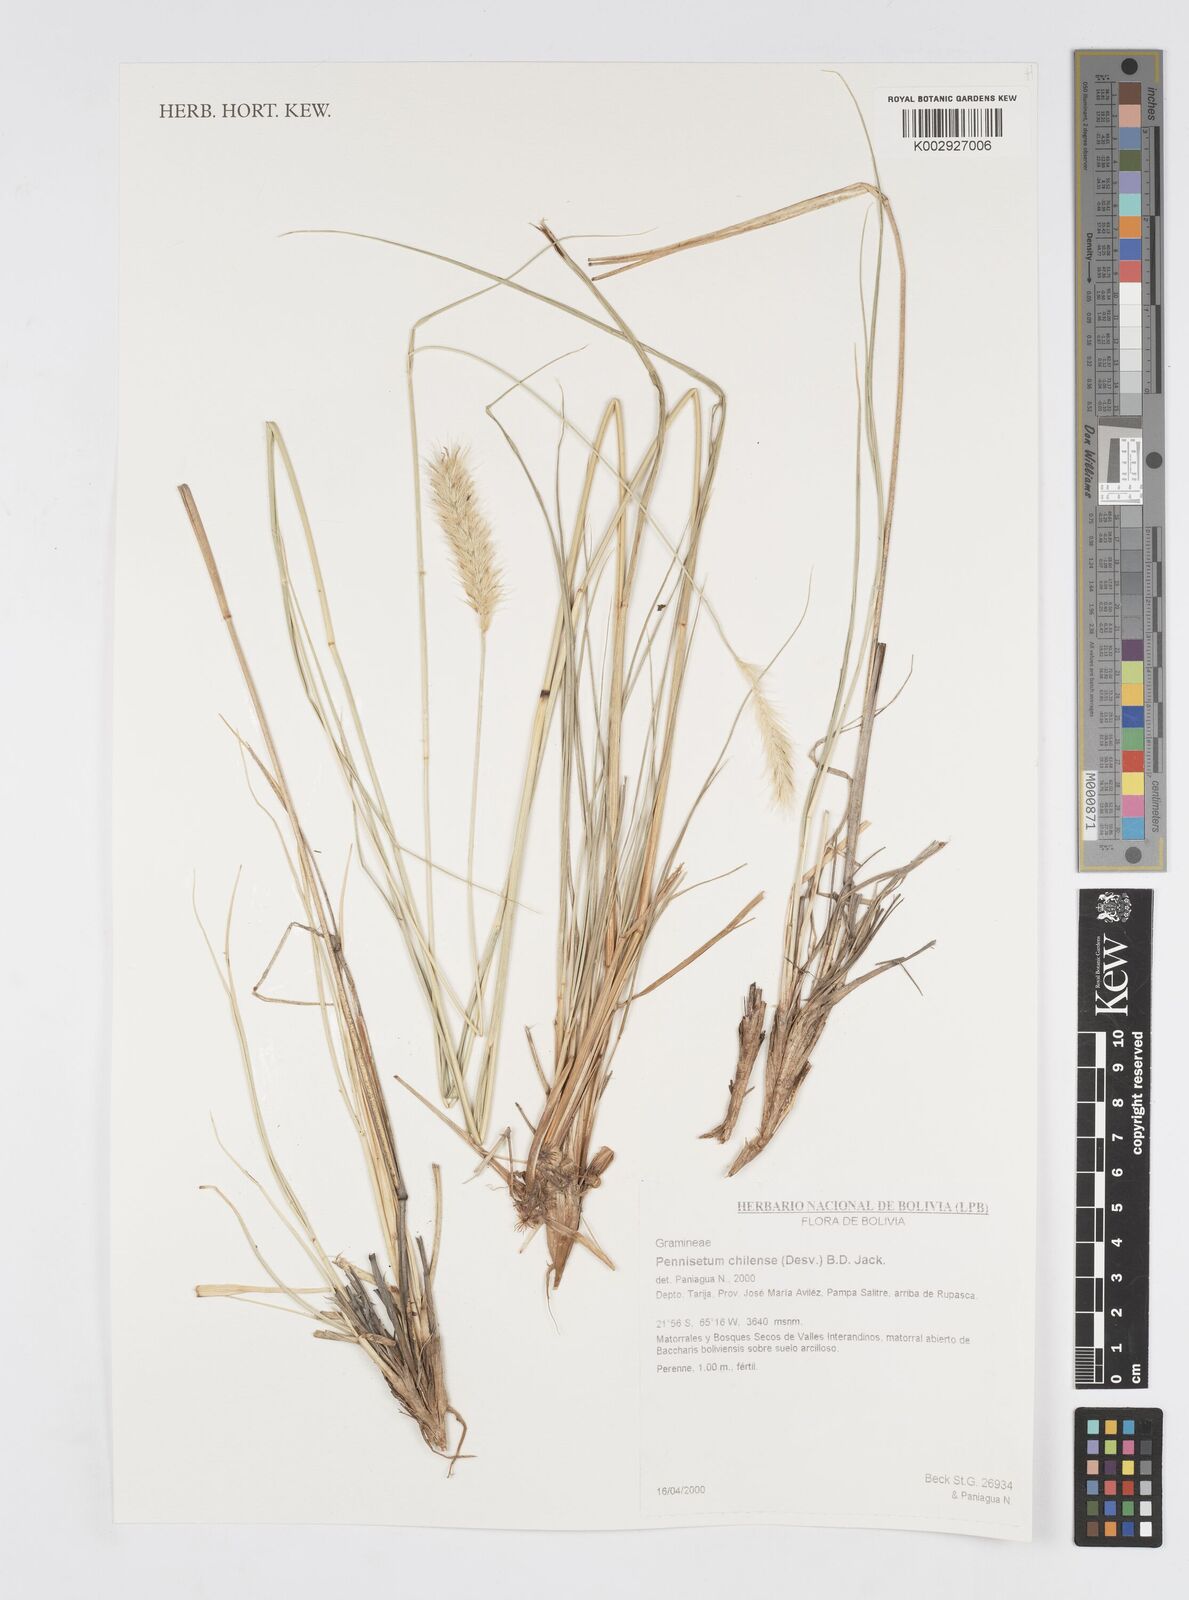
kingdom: Plantae
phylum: Tracheophyta
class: Liliopsida
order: Poales
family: Poaceae
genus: Cenchrus
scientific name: Cenchrus chilensis
